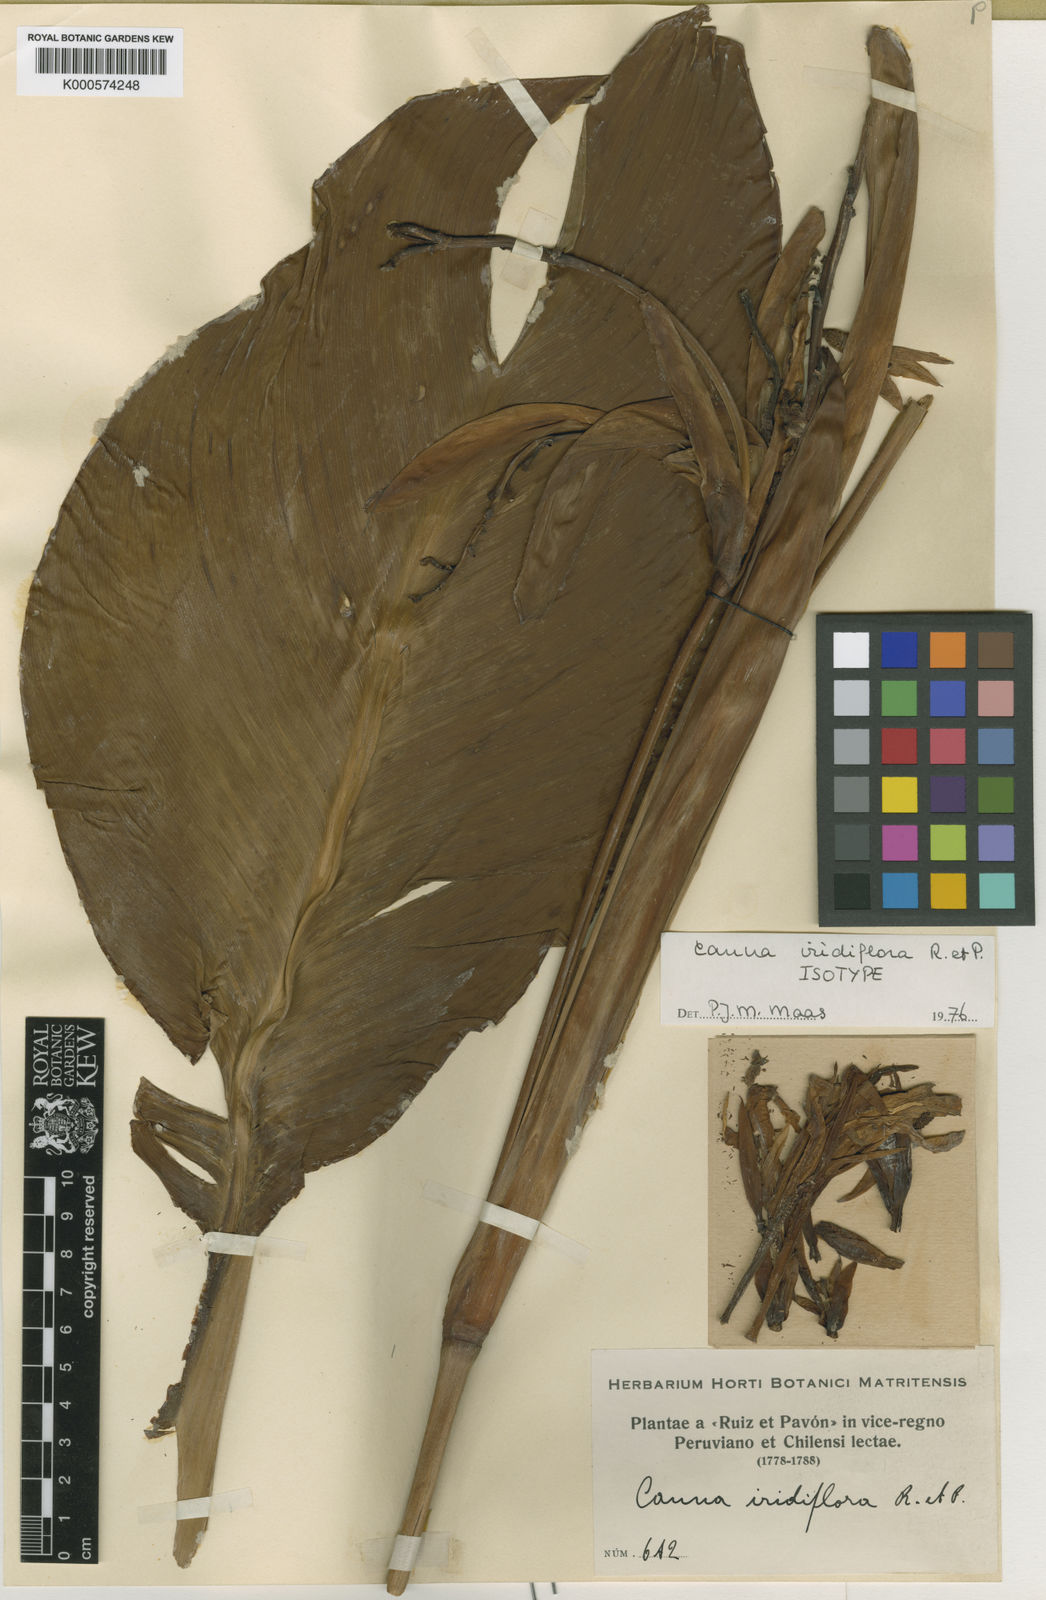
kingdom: Plantae
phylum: Tracheophyta
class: Liliopsida
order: Zingiberales
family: Cannaceae
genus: Canna
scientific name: Canna iridiflora
